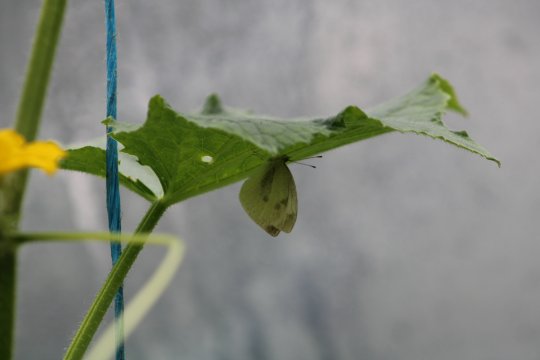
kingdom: Animalia
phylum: Arthropoda
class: Insecta
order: Lepidoptera
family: Pieridae
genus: Pieris
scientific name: Pieris rapae
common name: Cabbage White
